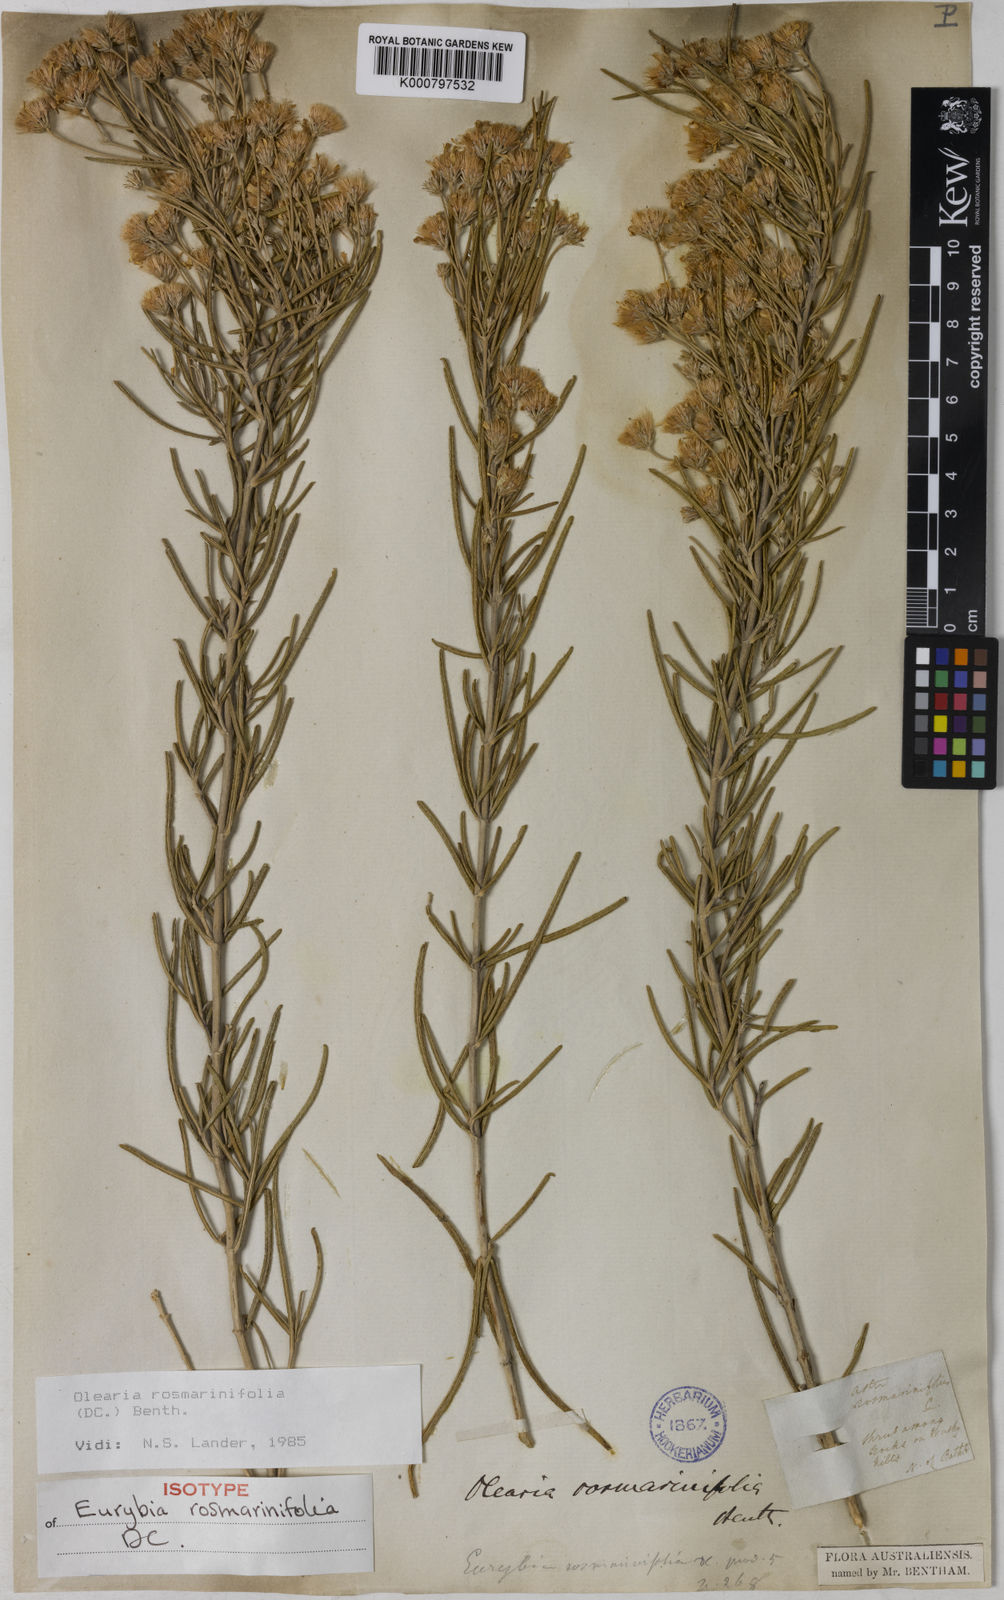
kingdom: Plantae
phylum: Tracheophyta
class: Magnoliopsida
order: Asterales
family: Asteraceae
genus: Olearia
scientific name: Olearia rosmarinifolia
